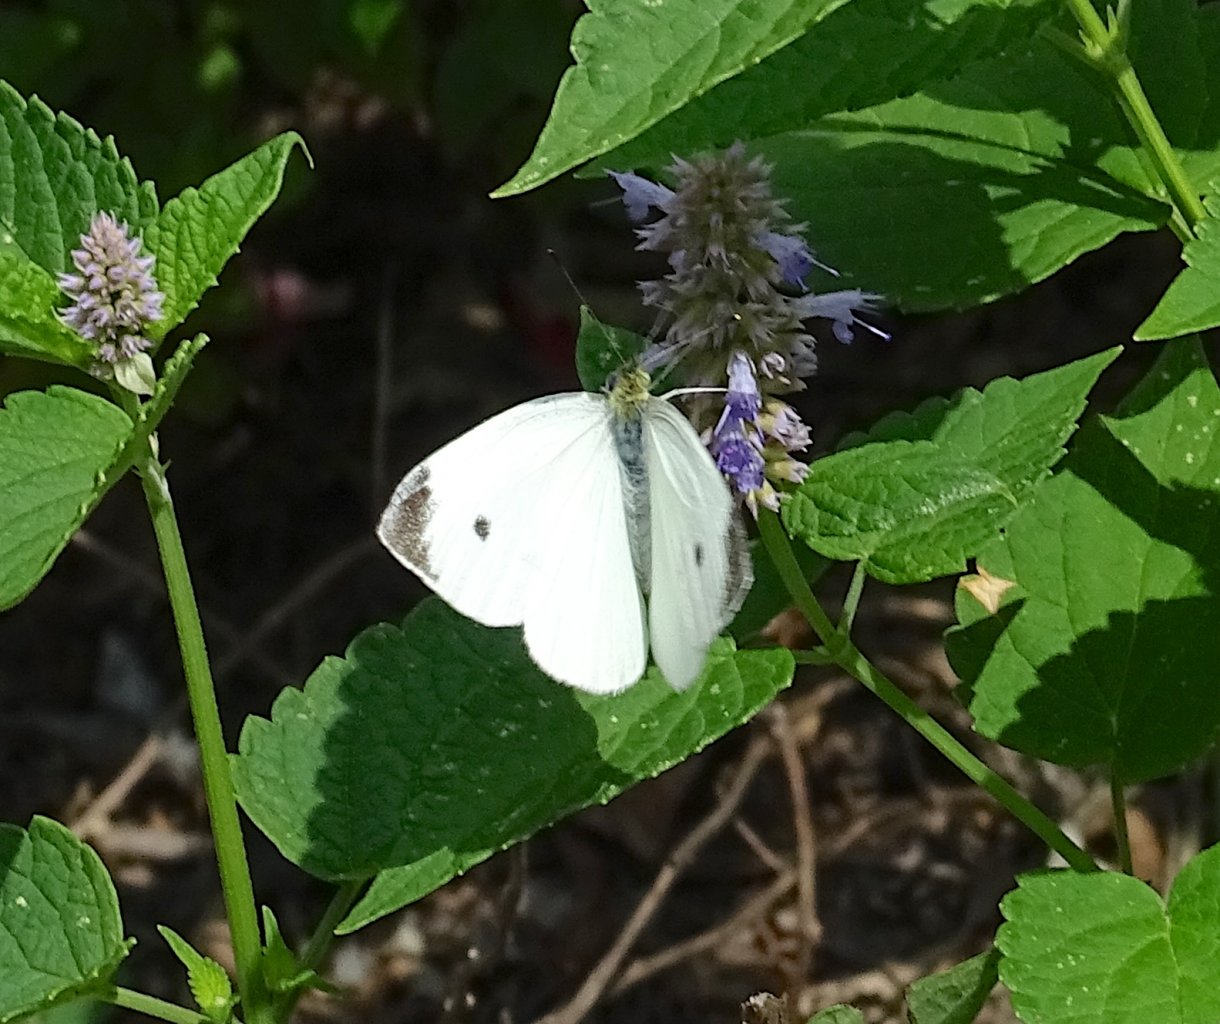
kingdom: Animalia
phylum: Arthropoda
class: Insecta
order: Lepidoptera
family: Pieridae
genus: Pieris
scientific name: Pieris rapae
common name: Cabbage White
